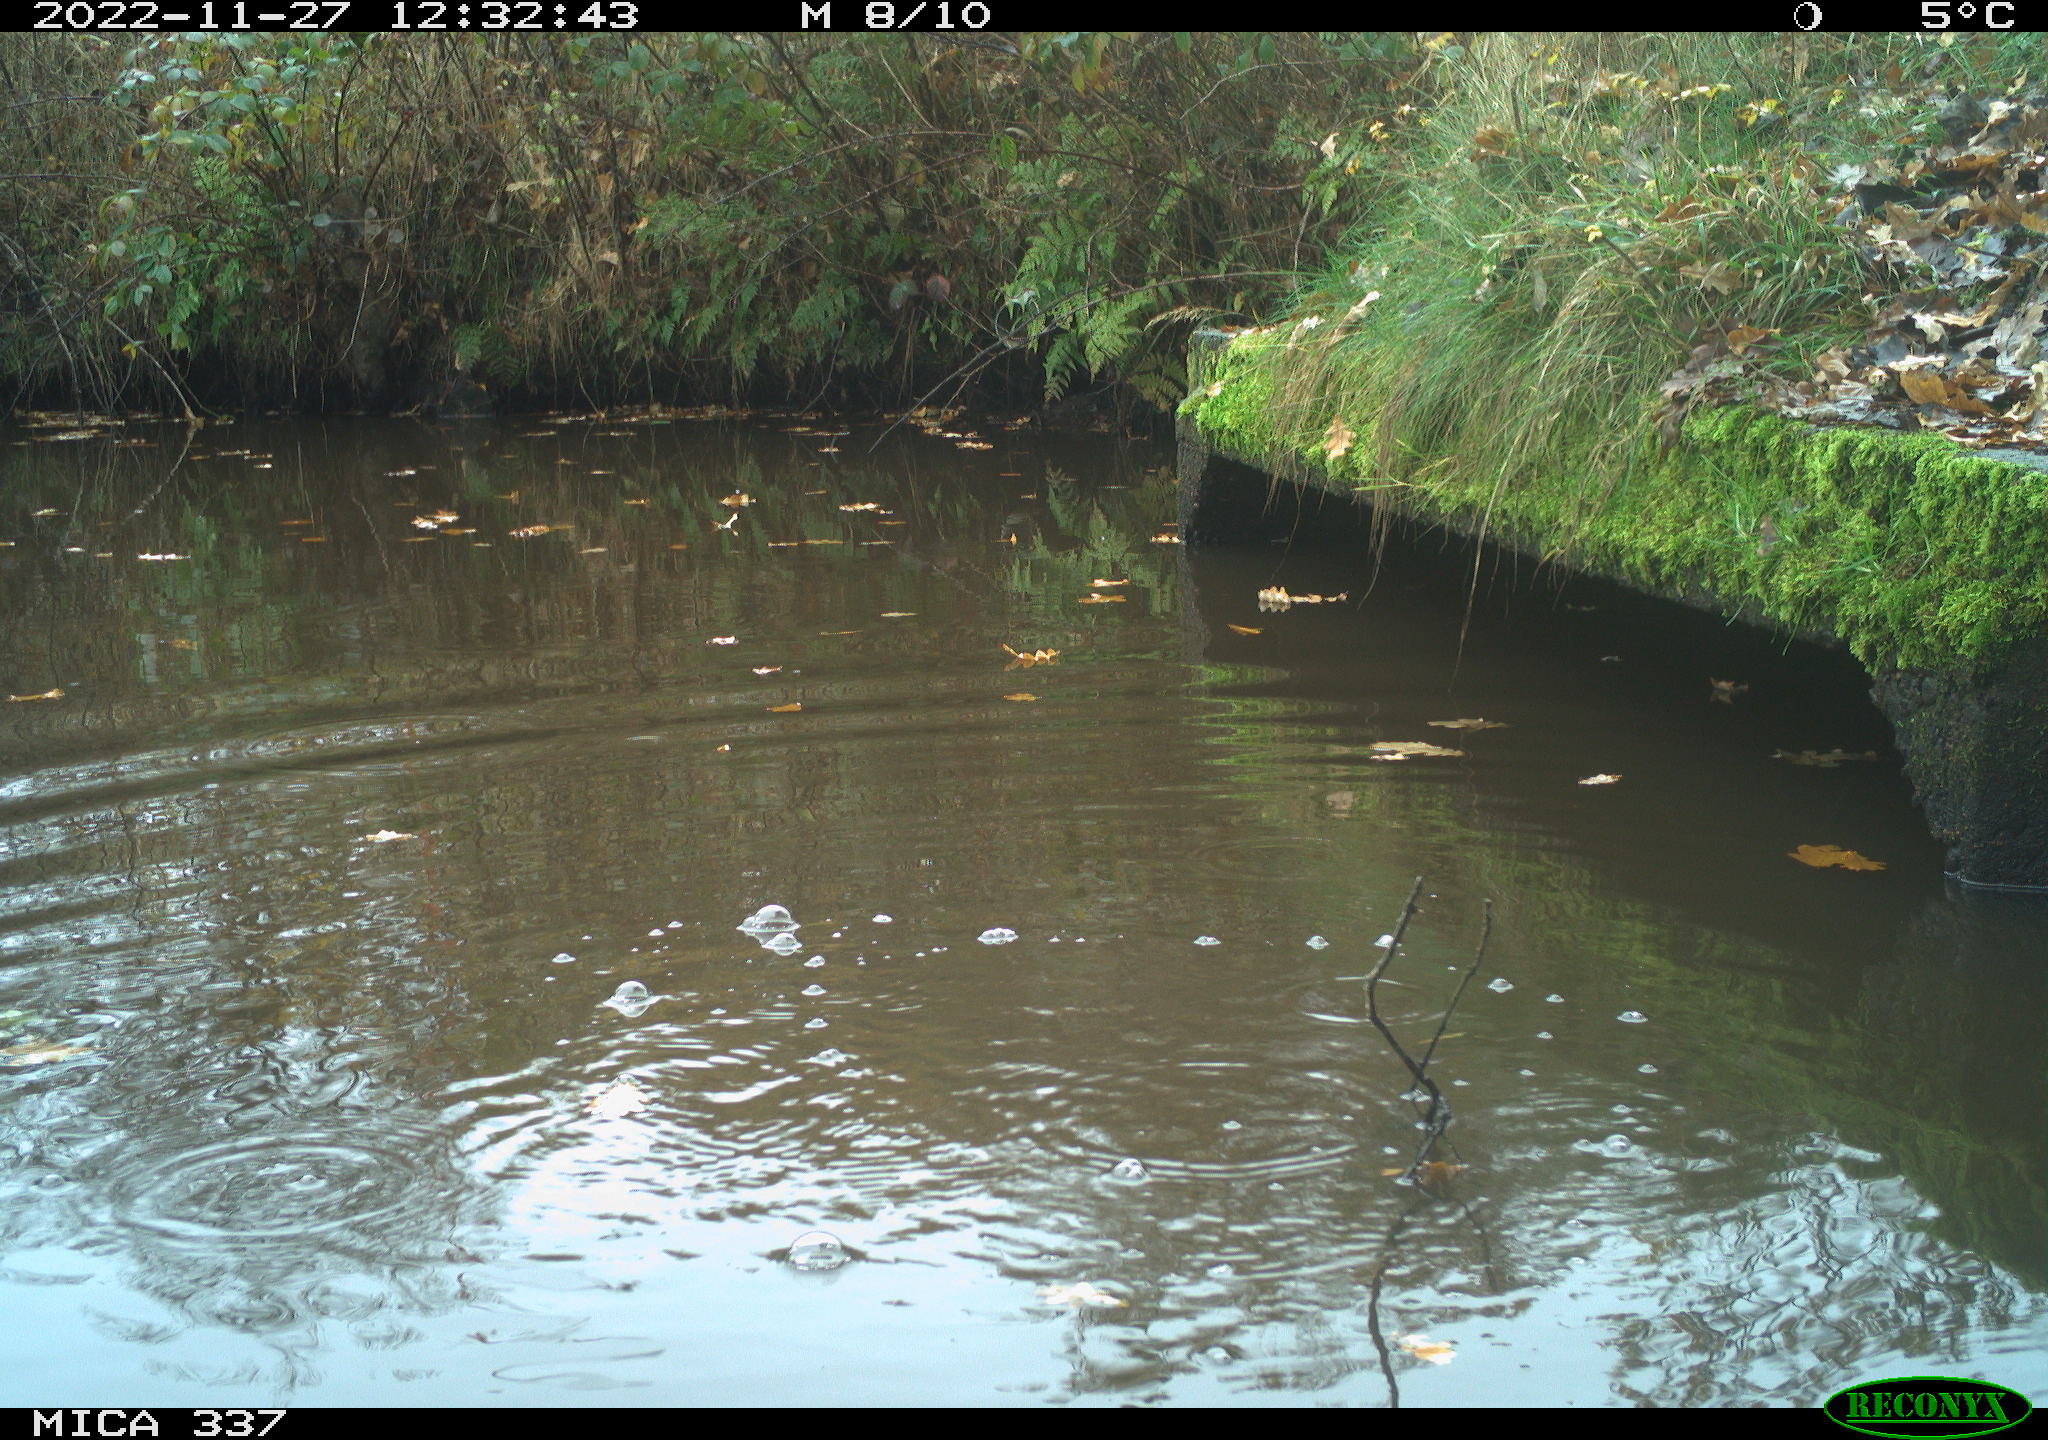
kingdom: Animalia
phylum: Chordata
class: Aves
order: Gruiformes
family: Rallidae
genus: Gallinula
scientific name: Gallinula chloropus
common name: Common moorhen
